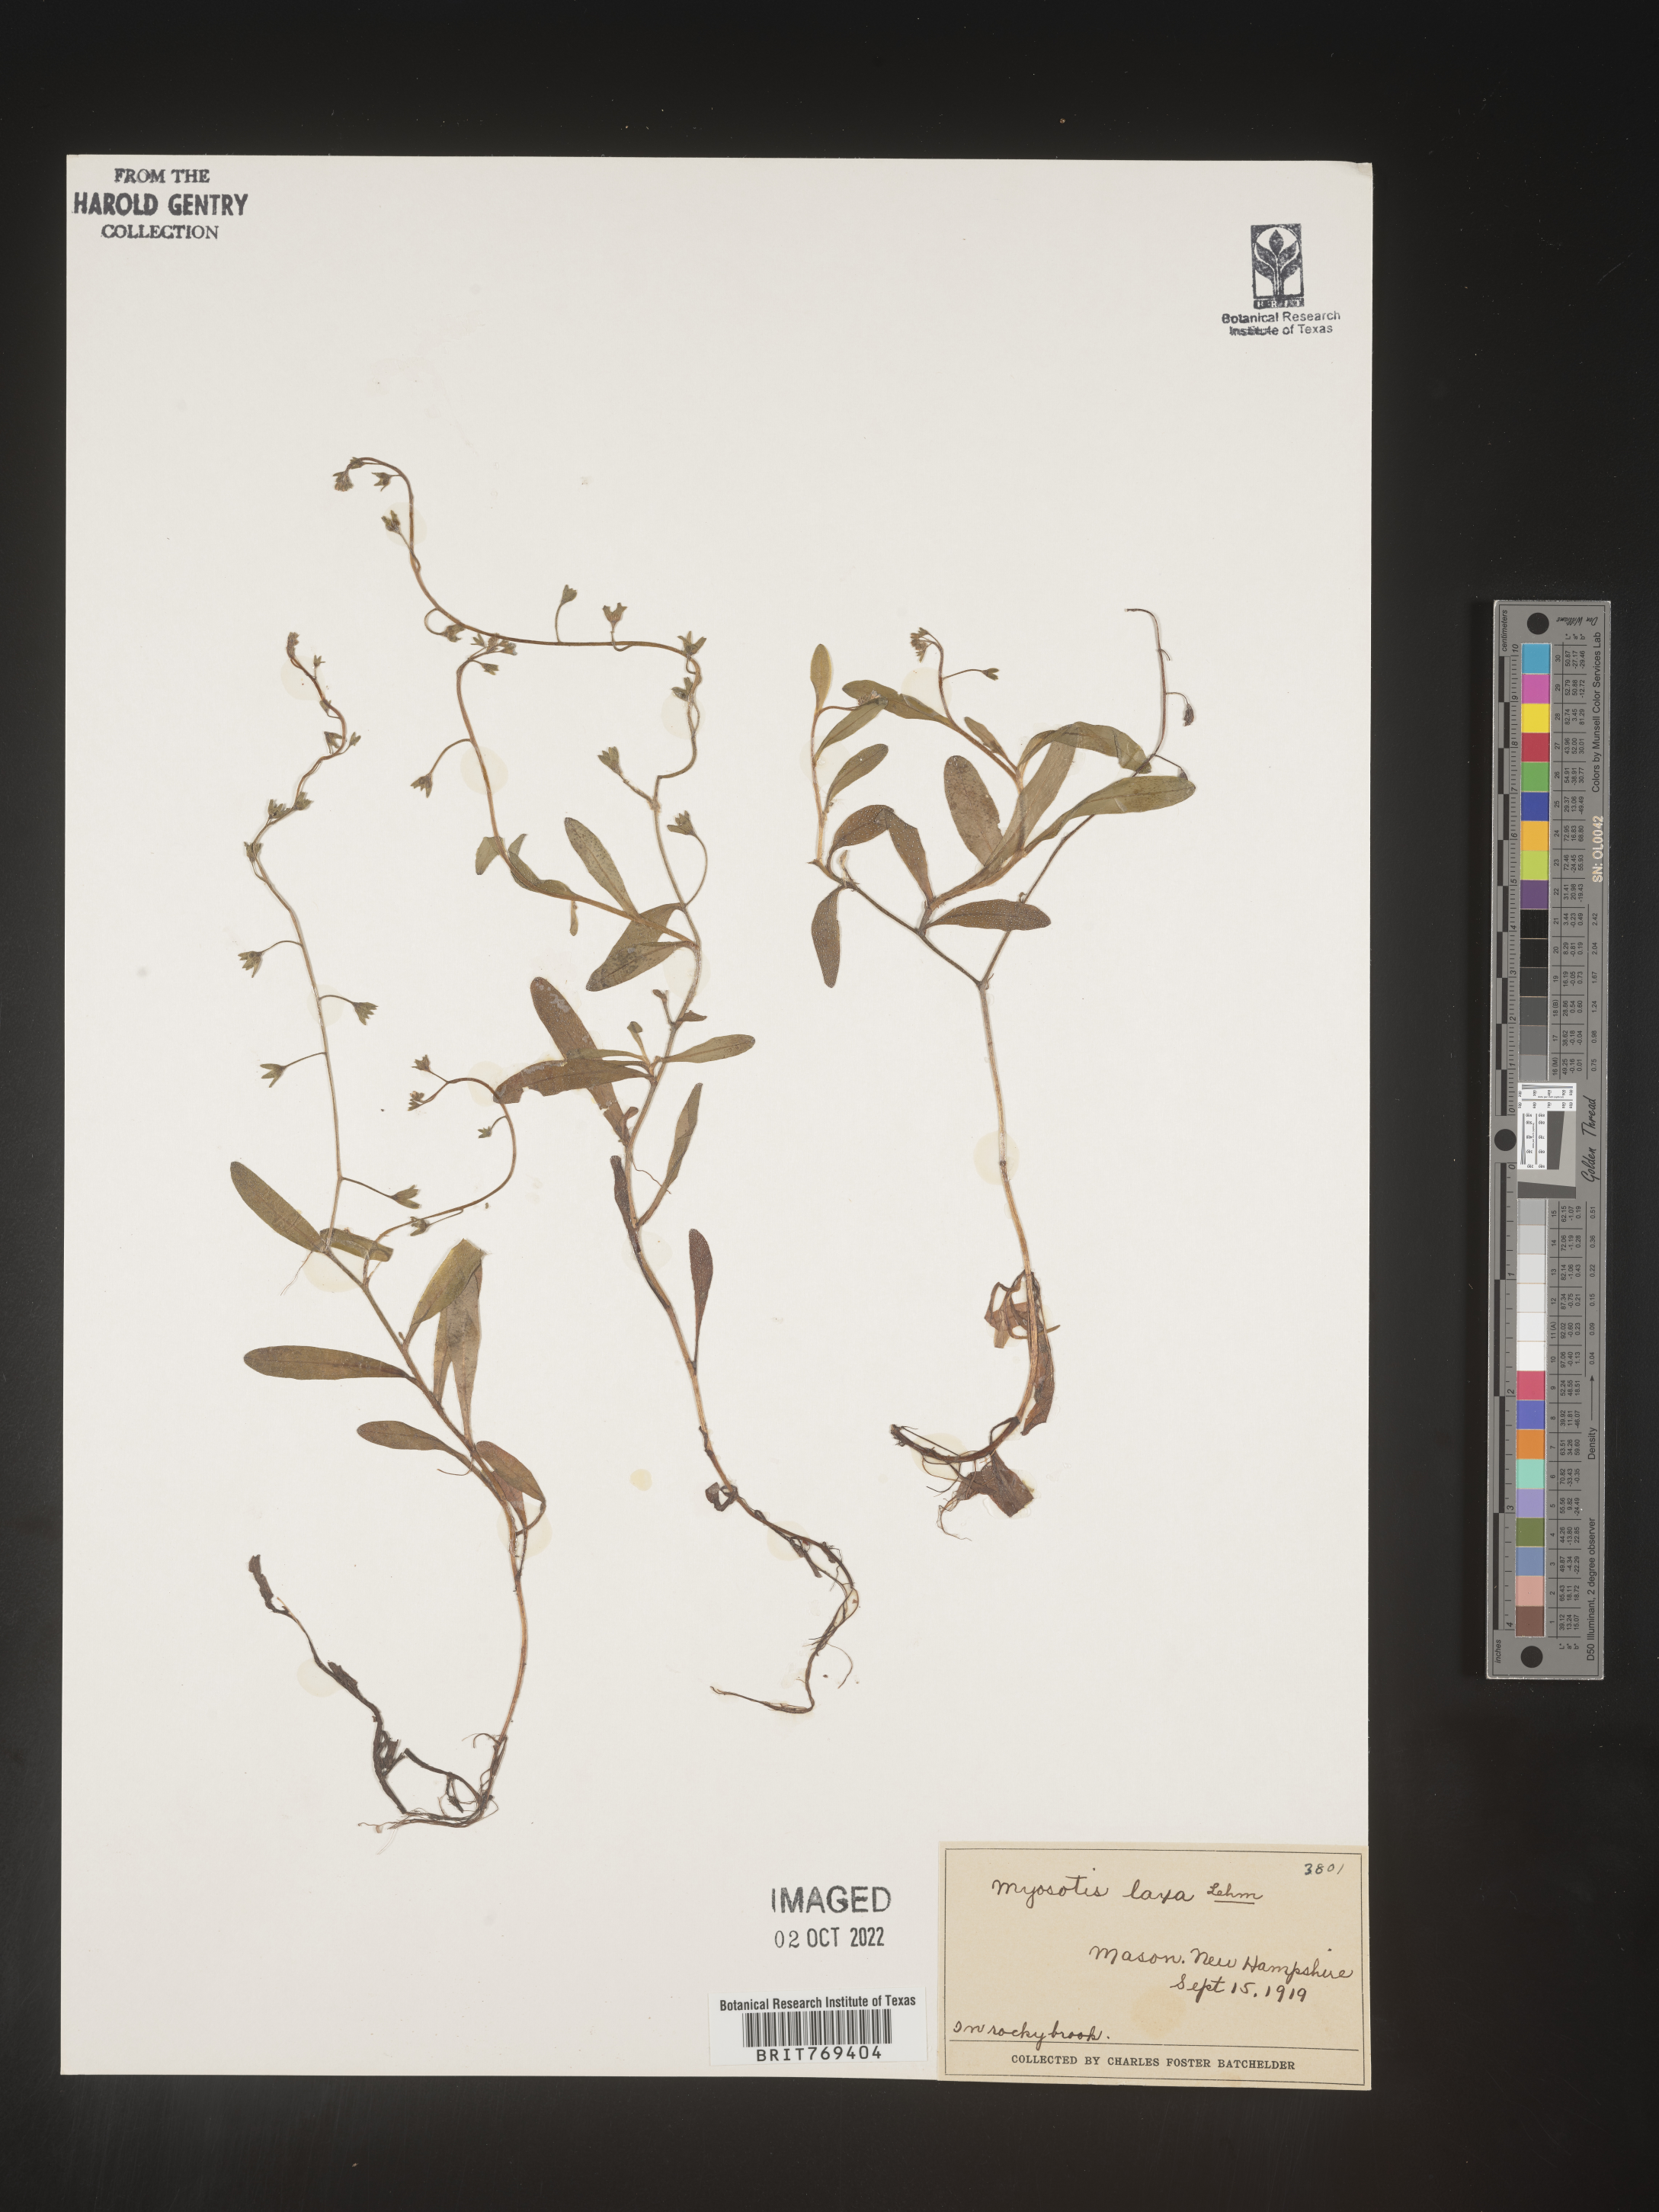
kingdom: Plantae
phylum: Tracheophyta
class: Magnoliopsida
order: Boraginales
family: Boraginaceae
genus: Myosotis
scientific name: Myosotis
